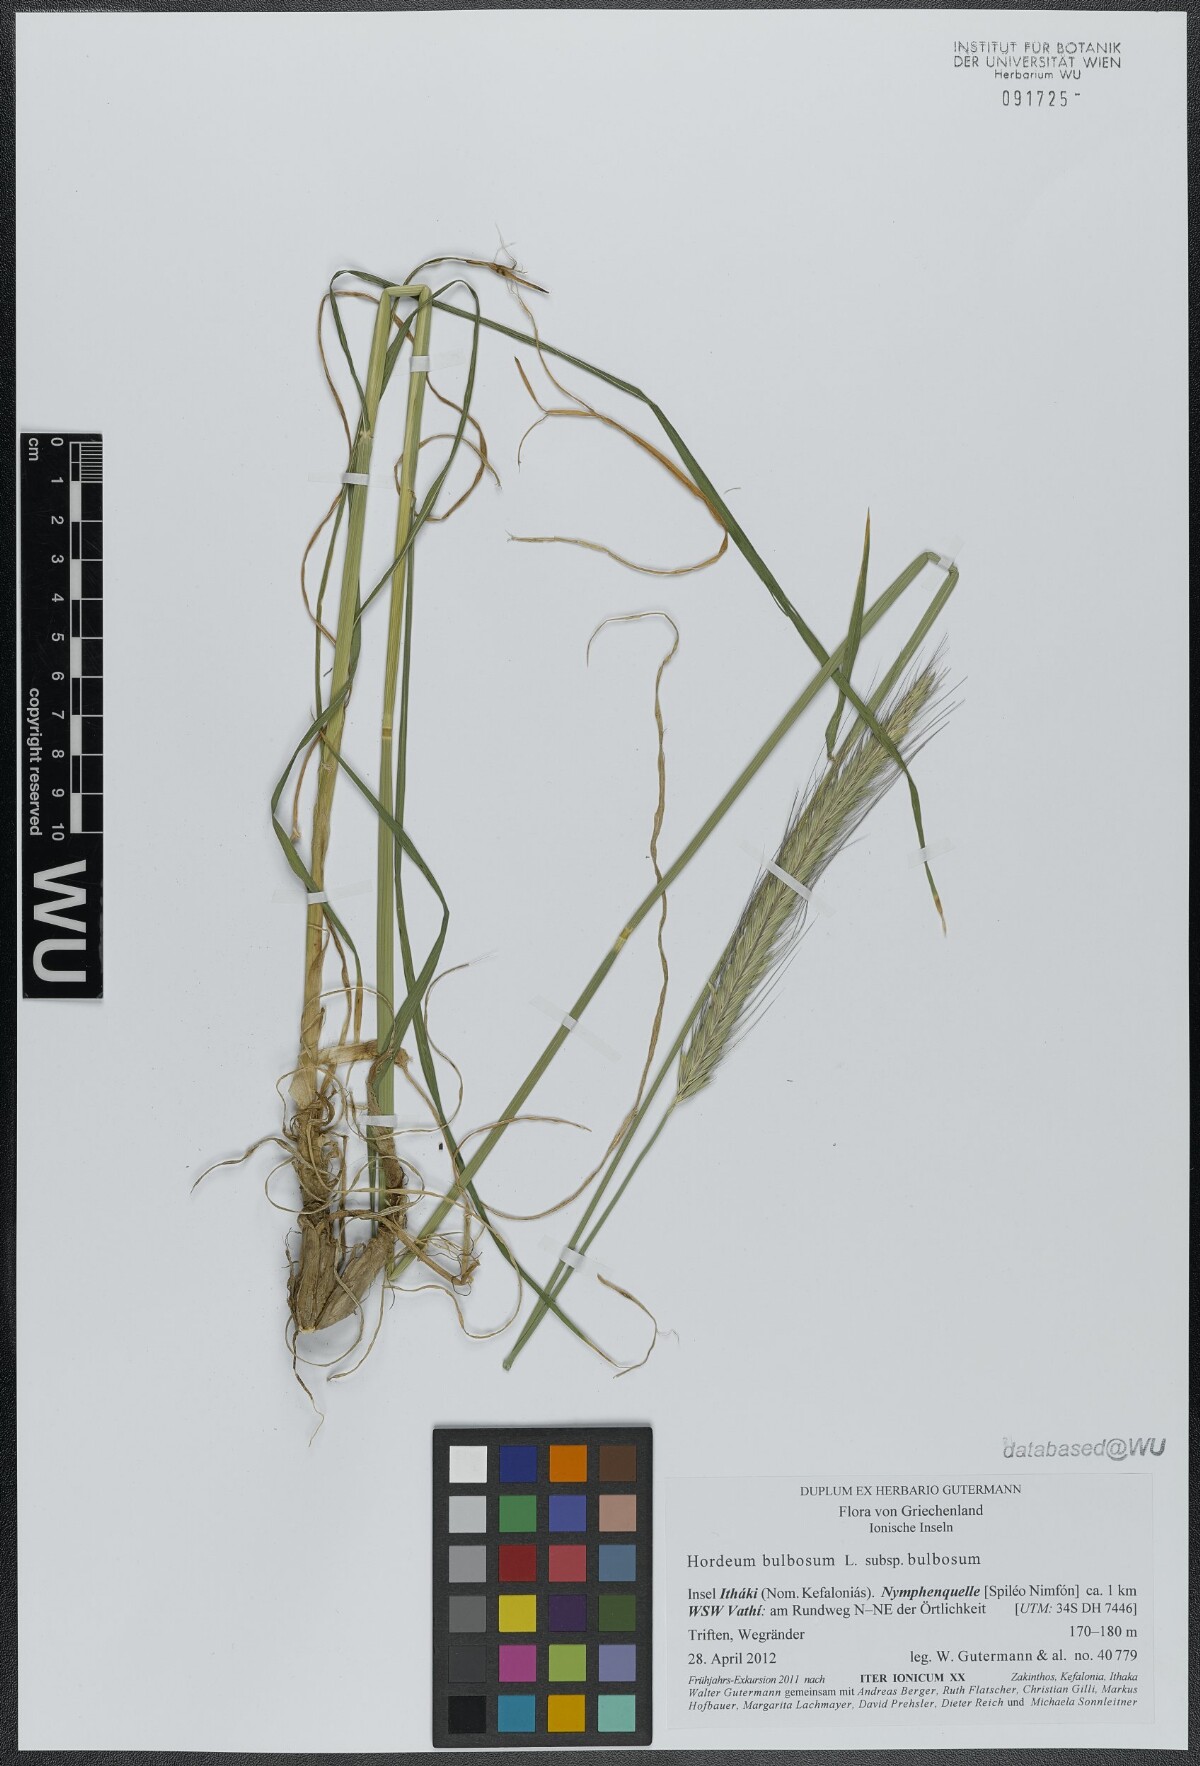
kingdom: Plantae
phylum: Tracheophyta
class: Liliopsida
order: Poales
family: Poaceae
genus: Hordeum
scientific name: Hordeum bulbosum
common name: Bulbous barley
